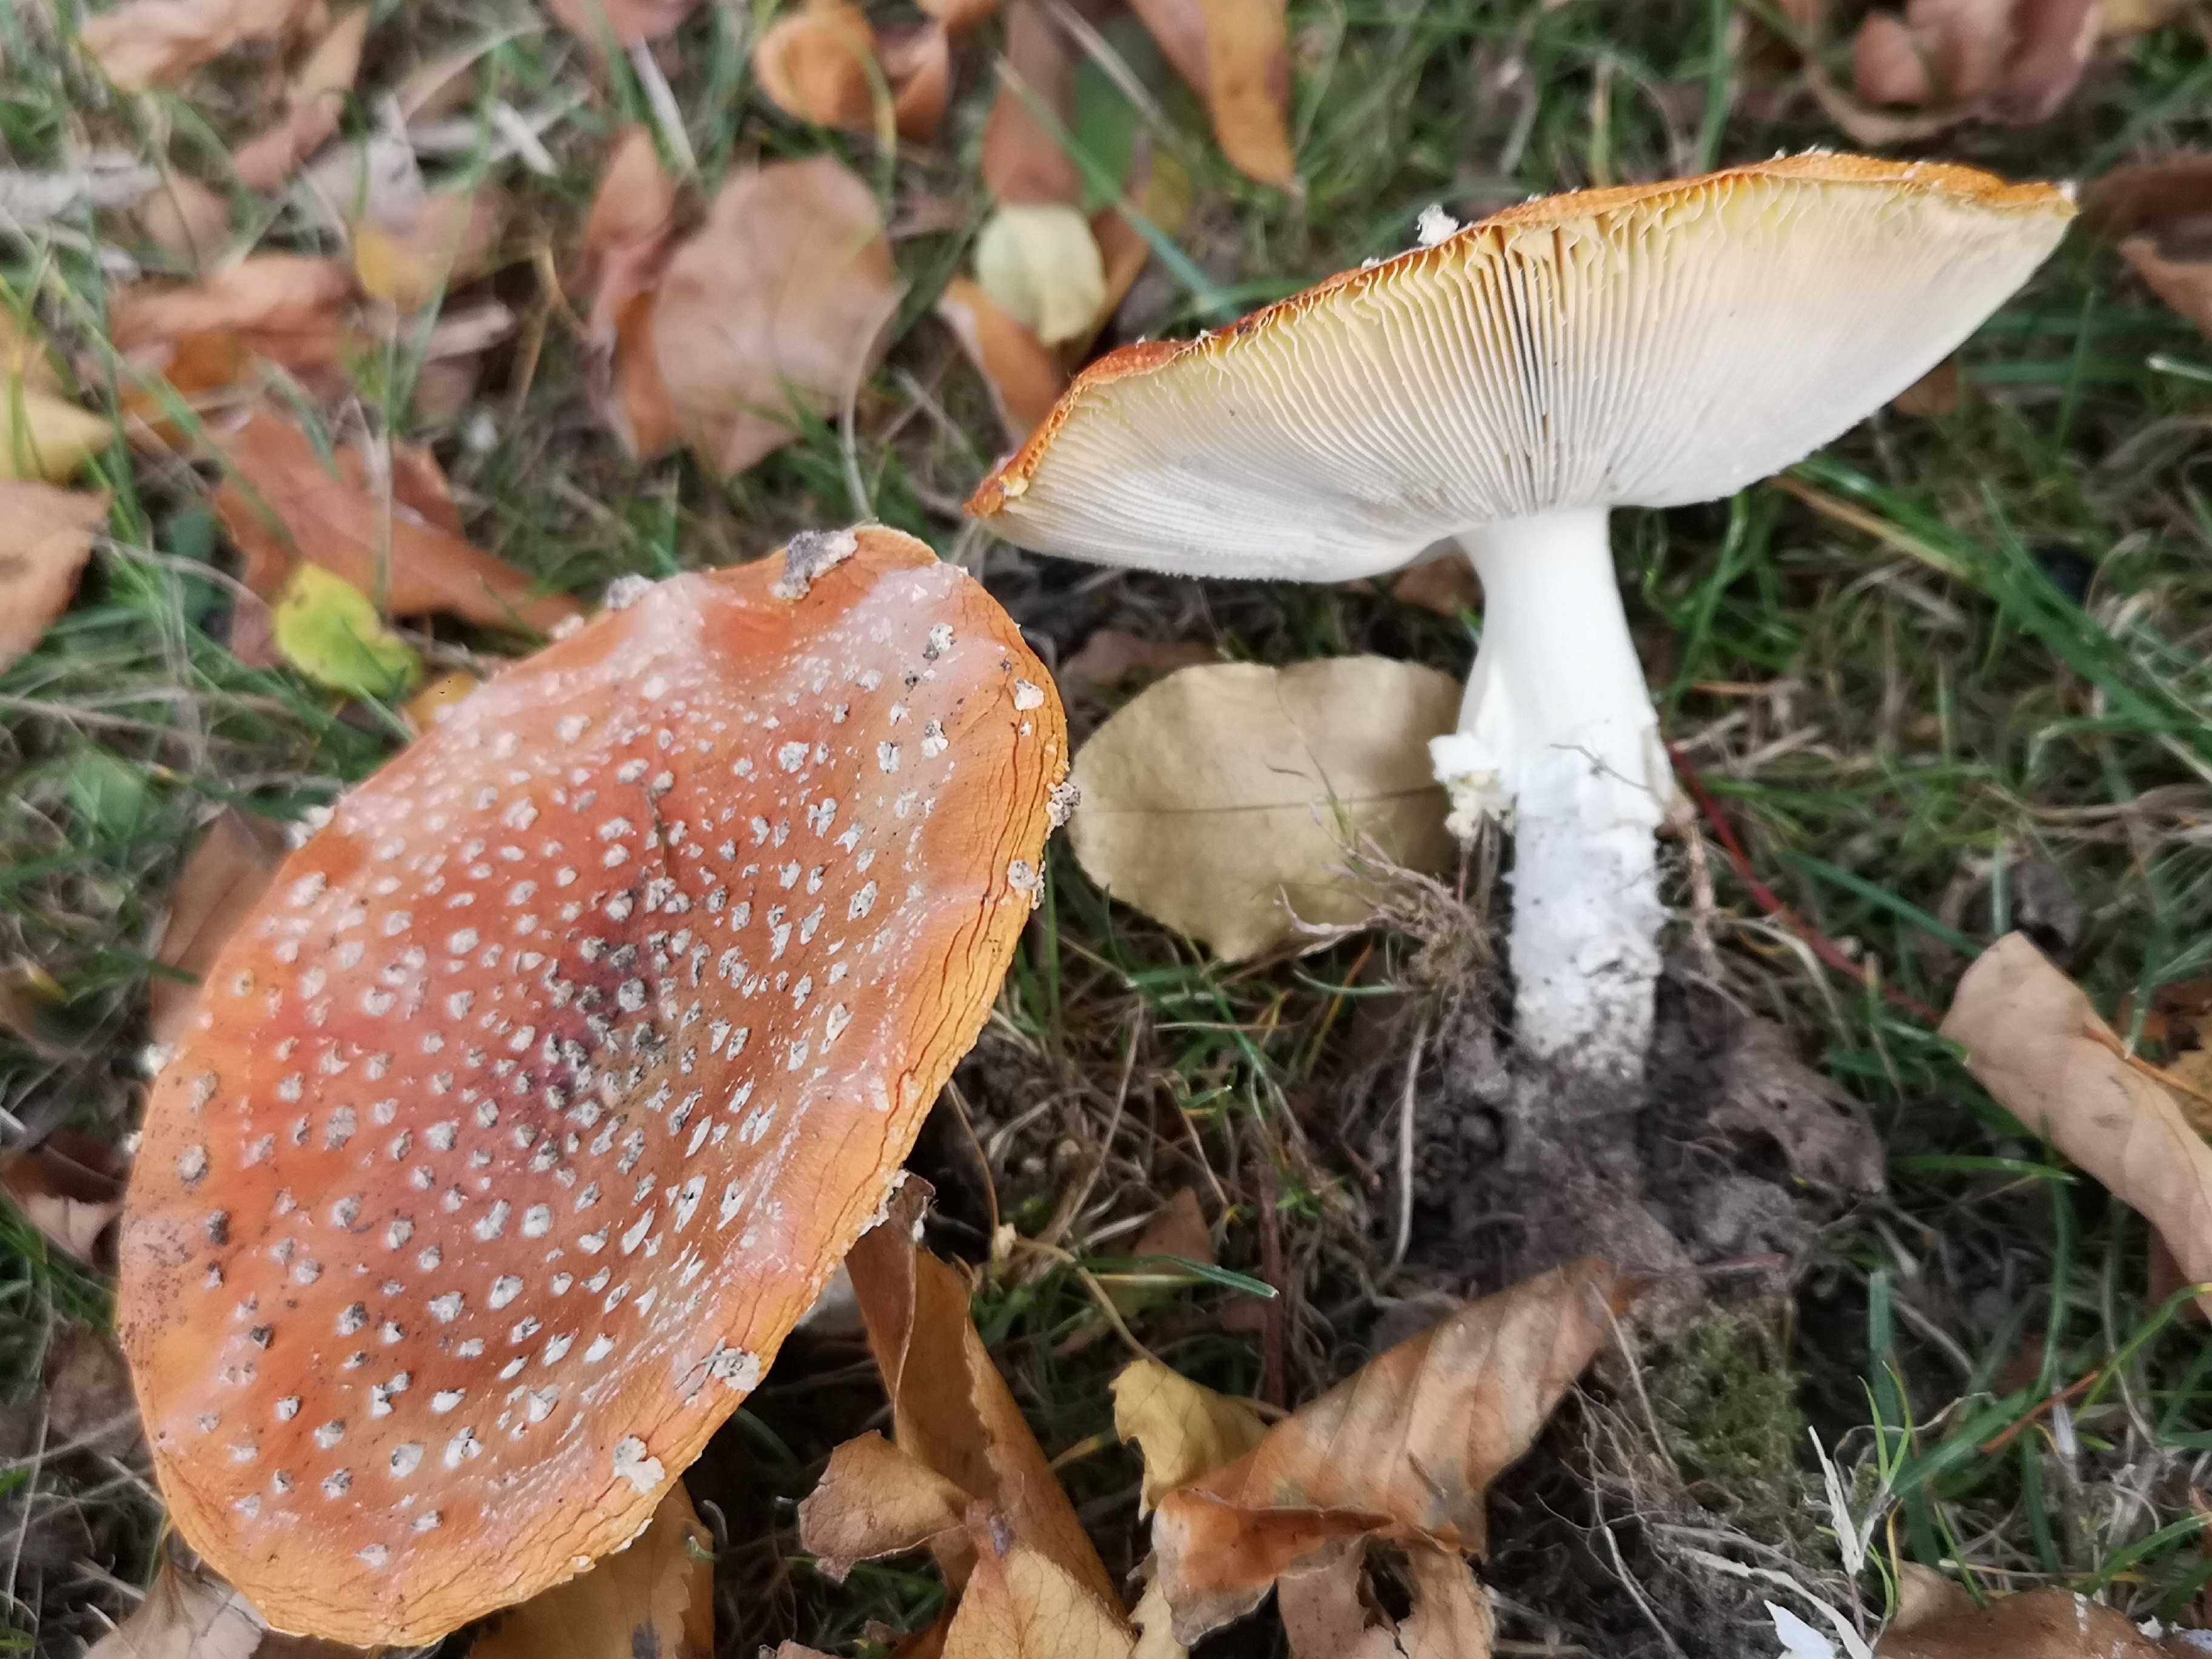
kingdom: Fungi
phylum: Basidiomycota
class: Agaricomycetes
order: Agaricales
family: Amanitaceae
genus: Amanita
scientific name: Amanita muscaria
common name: rød fluesvamp
